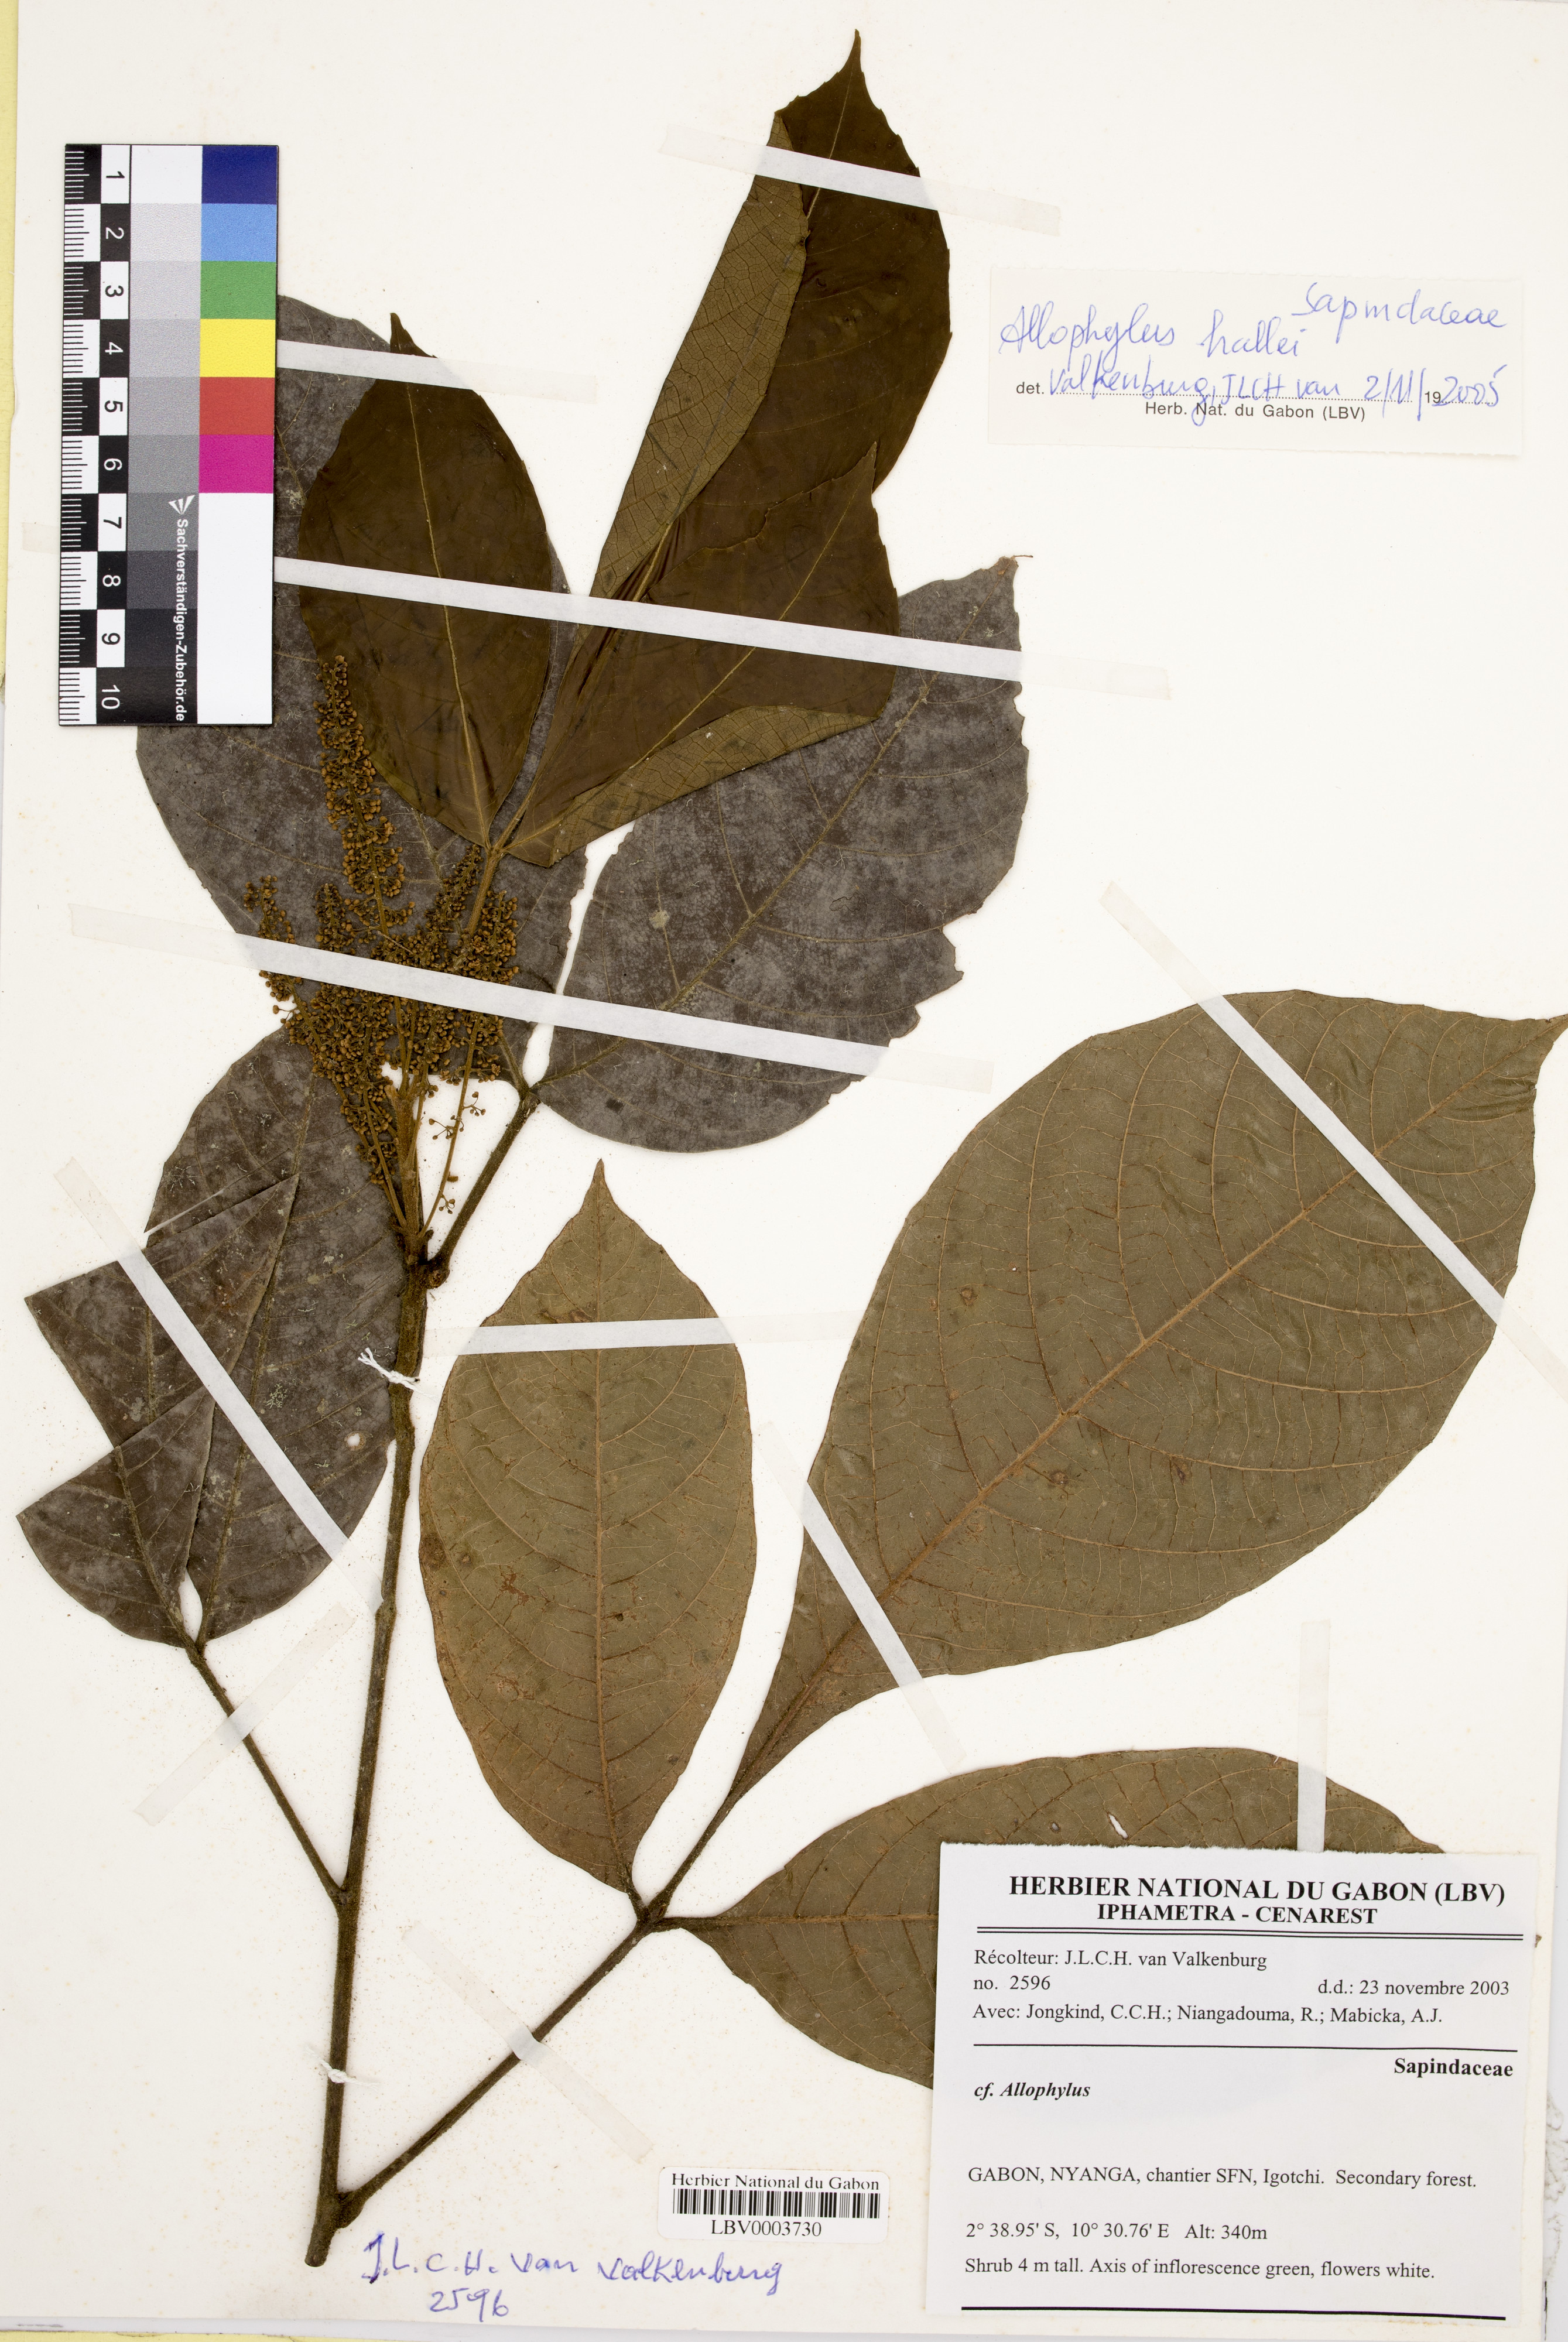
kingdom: Plantae
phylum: Tracheophyta
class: Magnoliopsida
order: Sapindales
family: Sapindaceae
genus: Allophylus
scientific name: Allophylus hallaei
